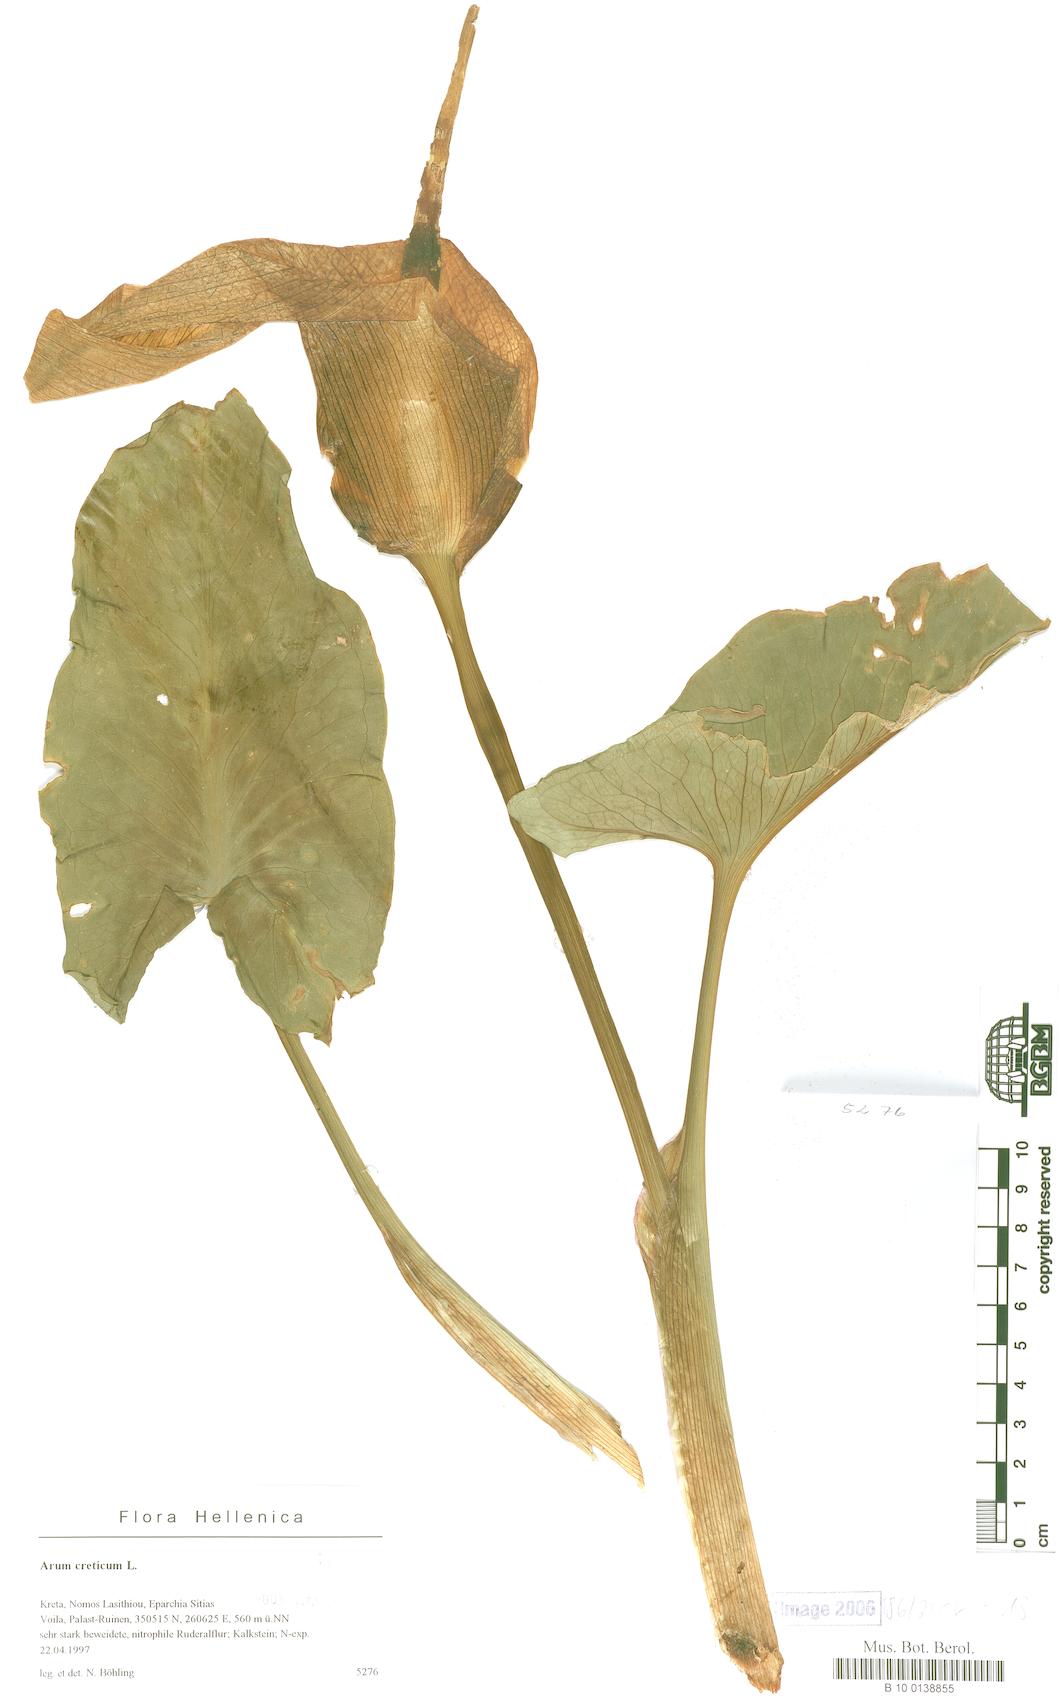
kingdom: Plantae
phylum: Tracheophyta
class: Liliopsida
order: Alismatales
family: Araceae
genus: Arum
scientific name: Arum creticum
